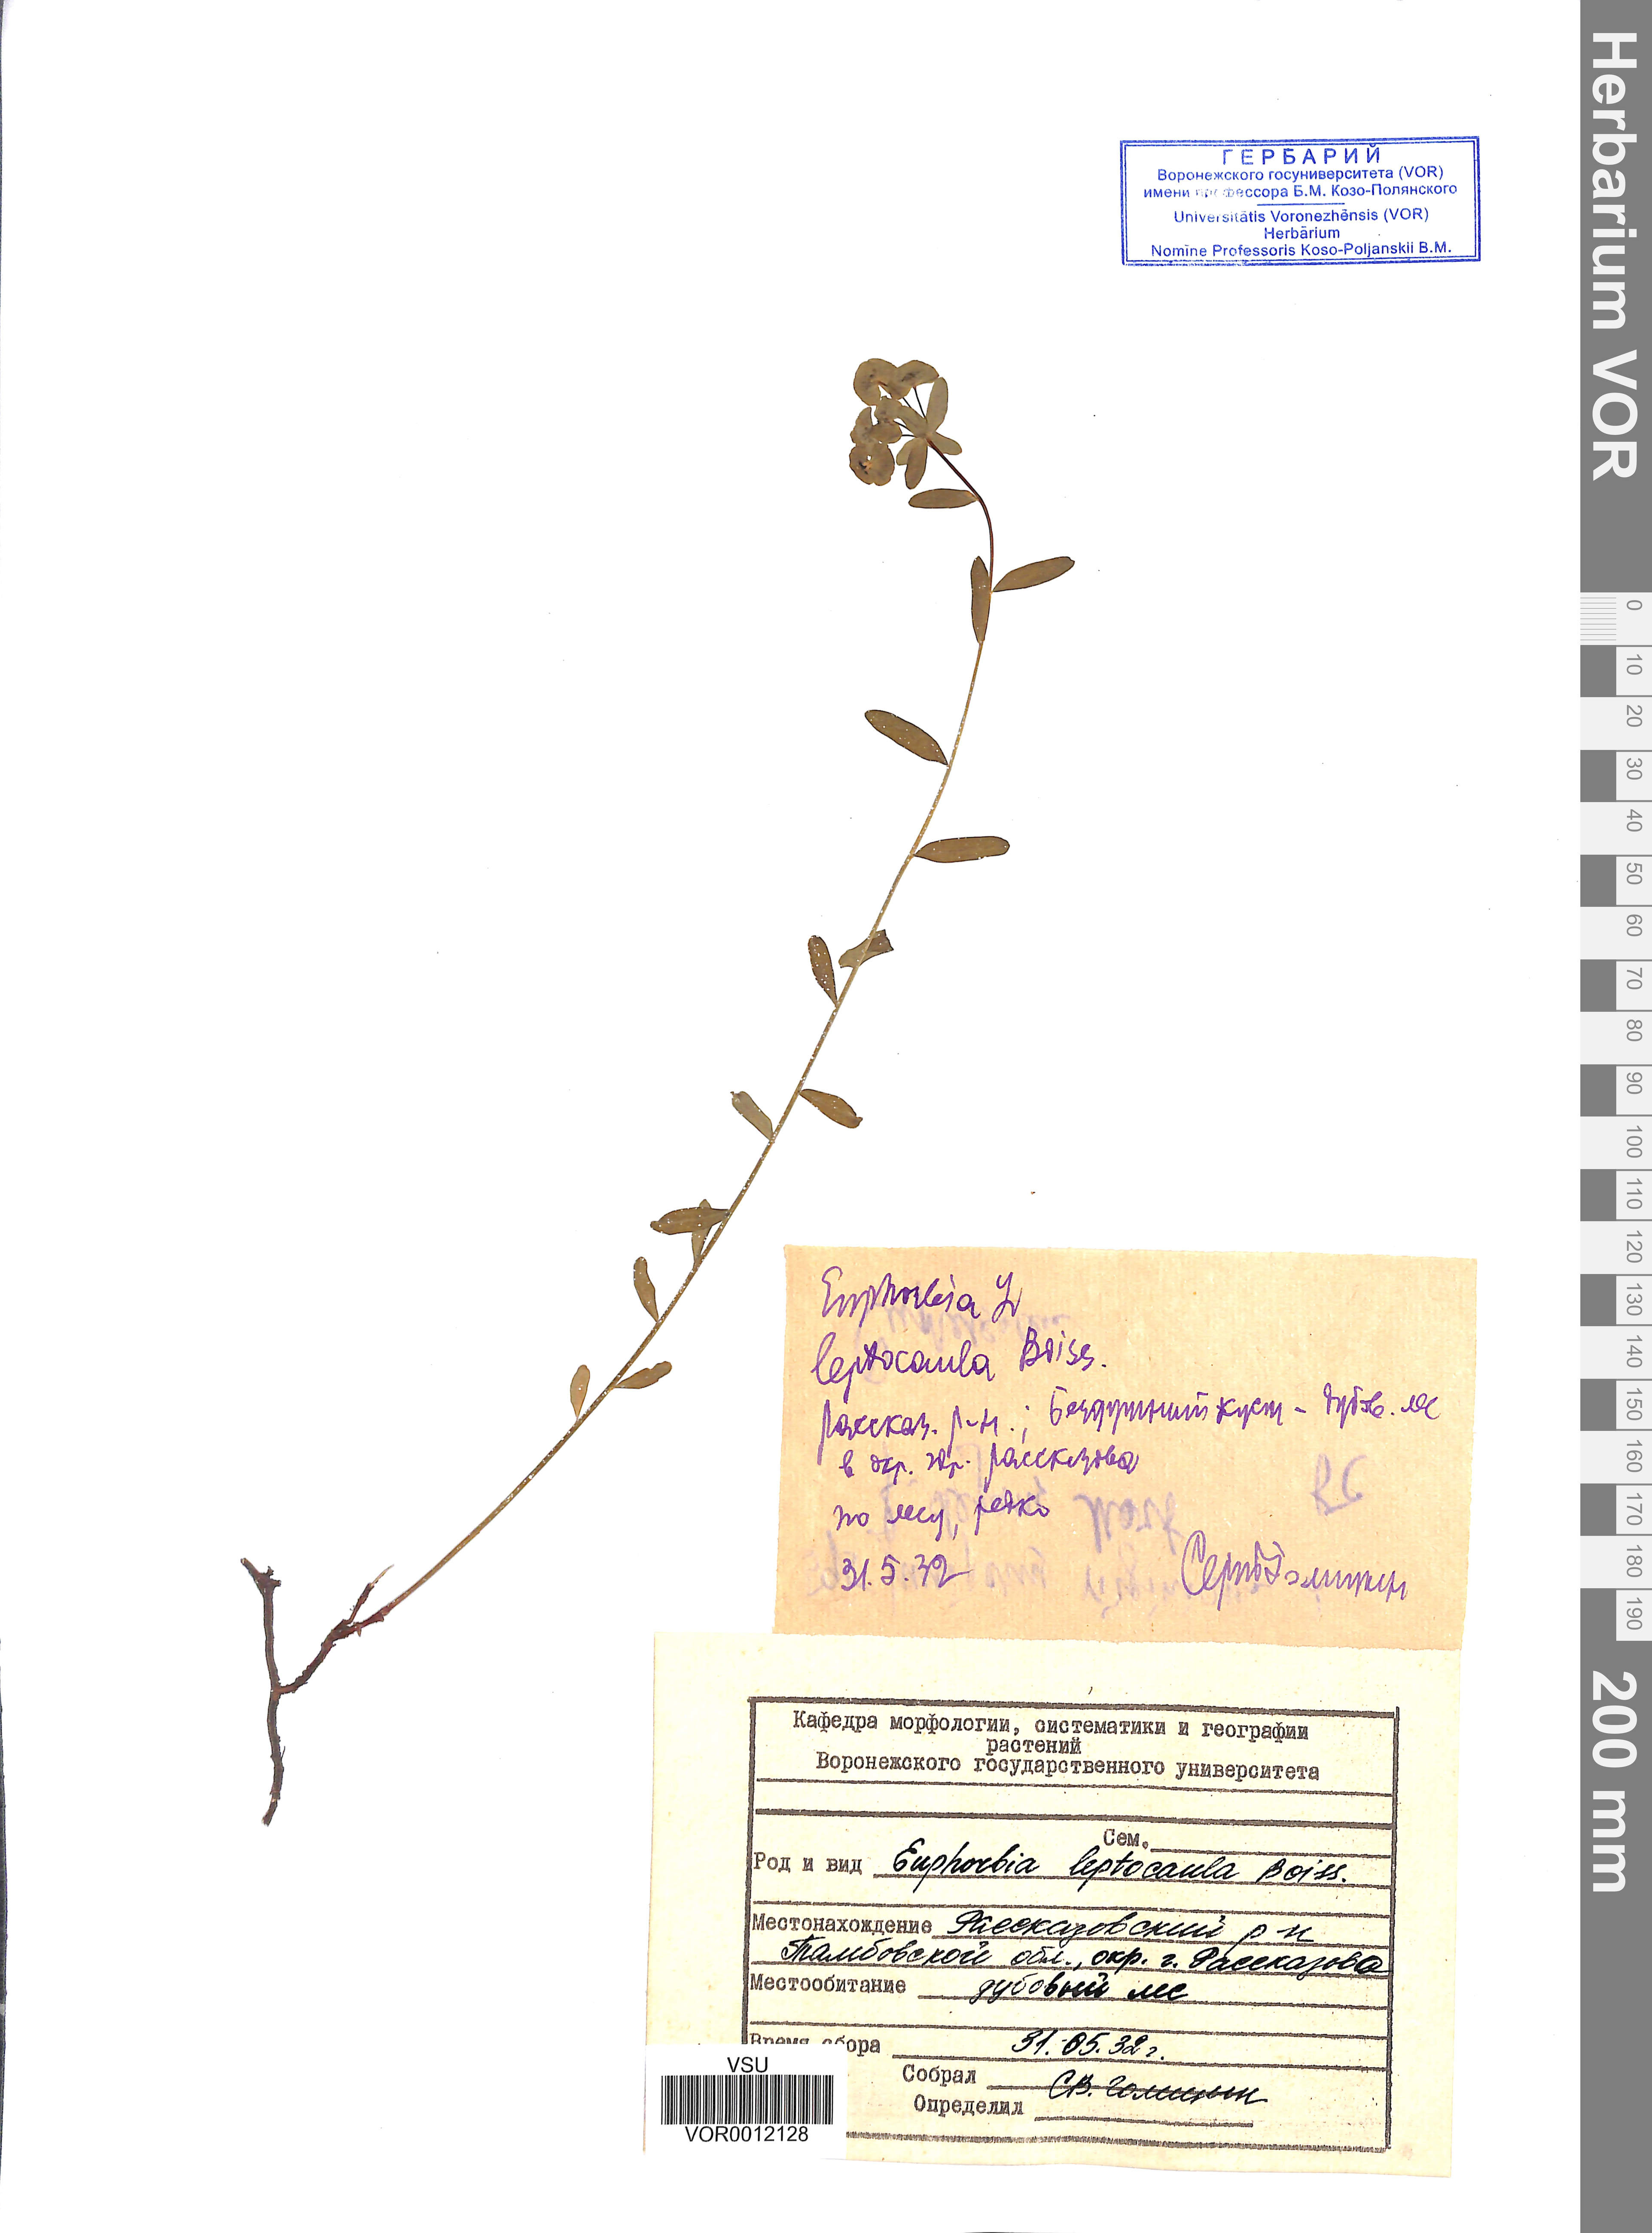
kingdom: Plantae
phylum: Tracheophyta
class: Magnoliopsida
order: Malpighiales
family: Euphorbiaceae
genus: Euphorbia
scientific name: Euphorbia leptocaula
